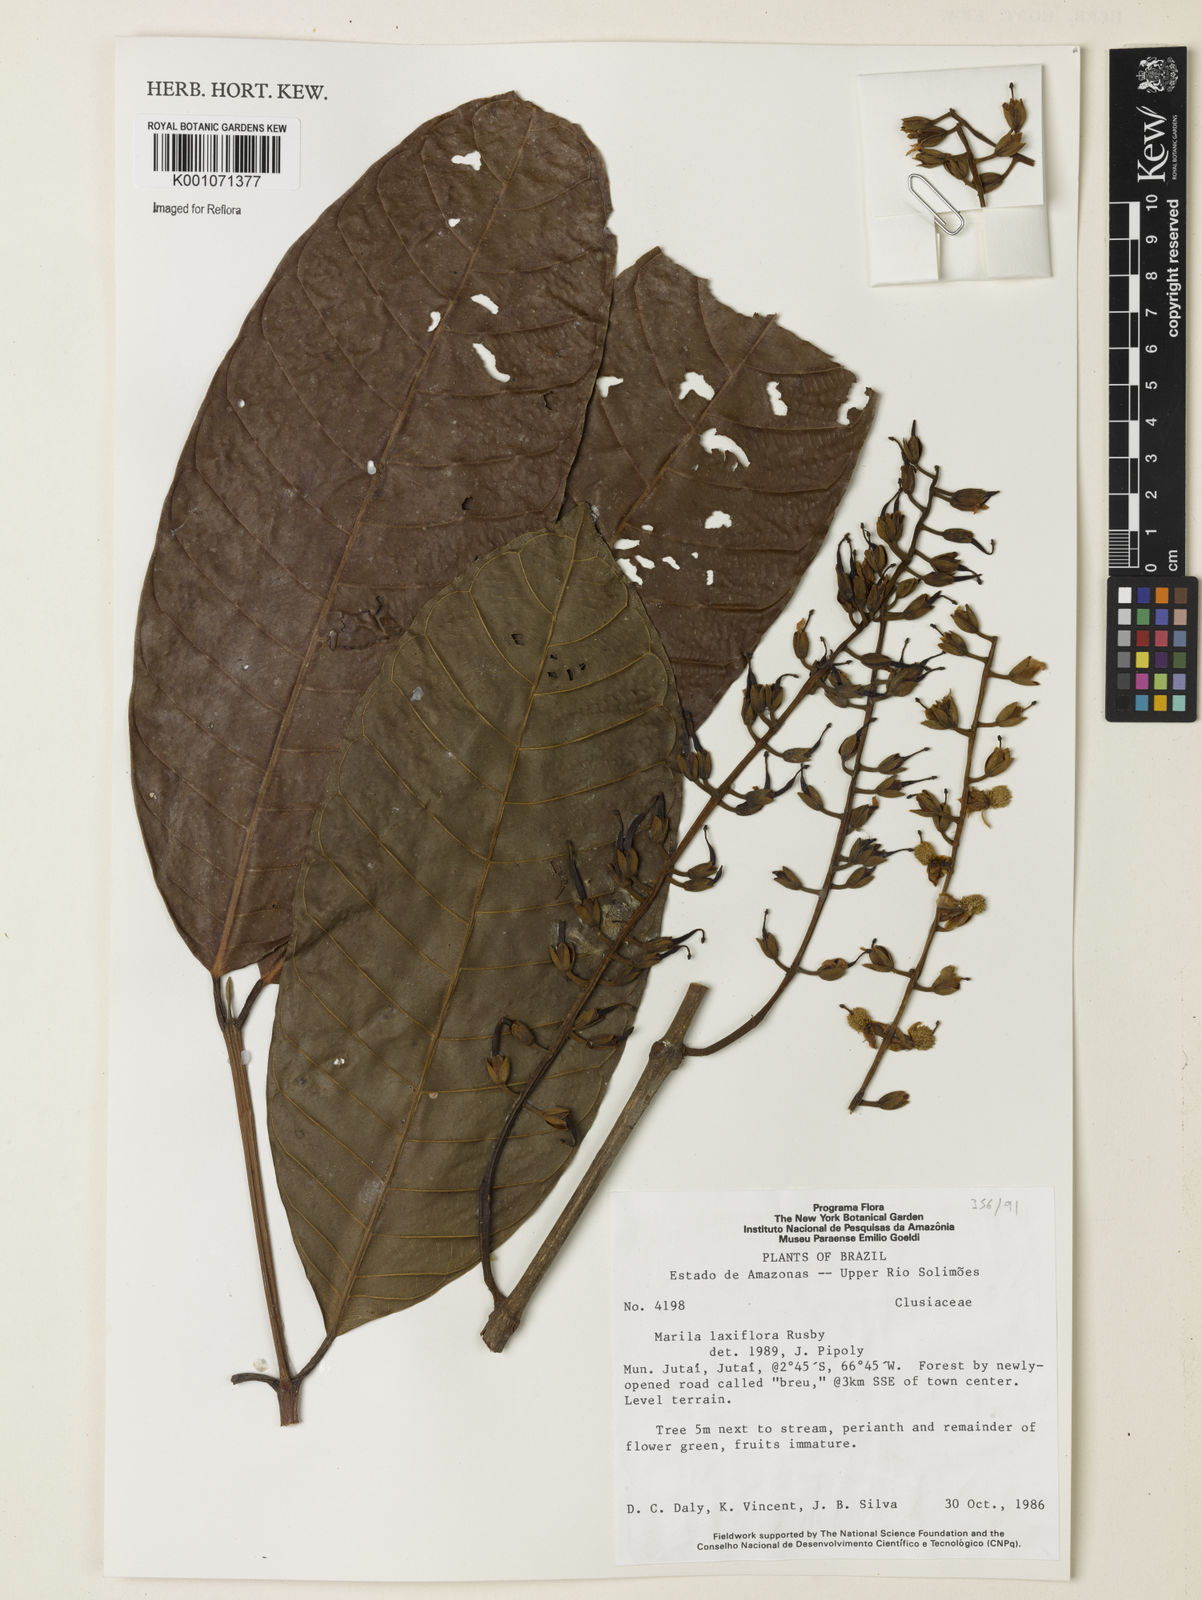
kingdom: Plantae
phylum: Tracheophyta
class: Magnoliopsida
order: Malpighiales
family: Calophyllaceae
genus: Marila
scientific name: Marila laxiflora
